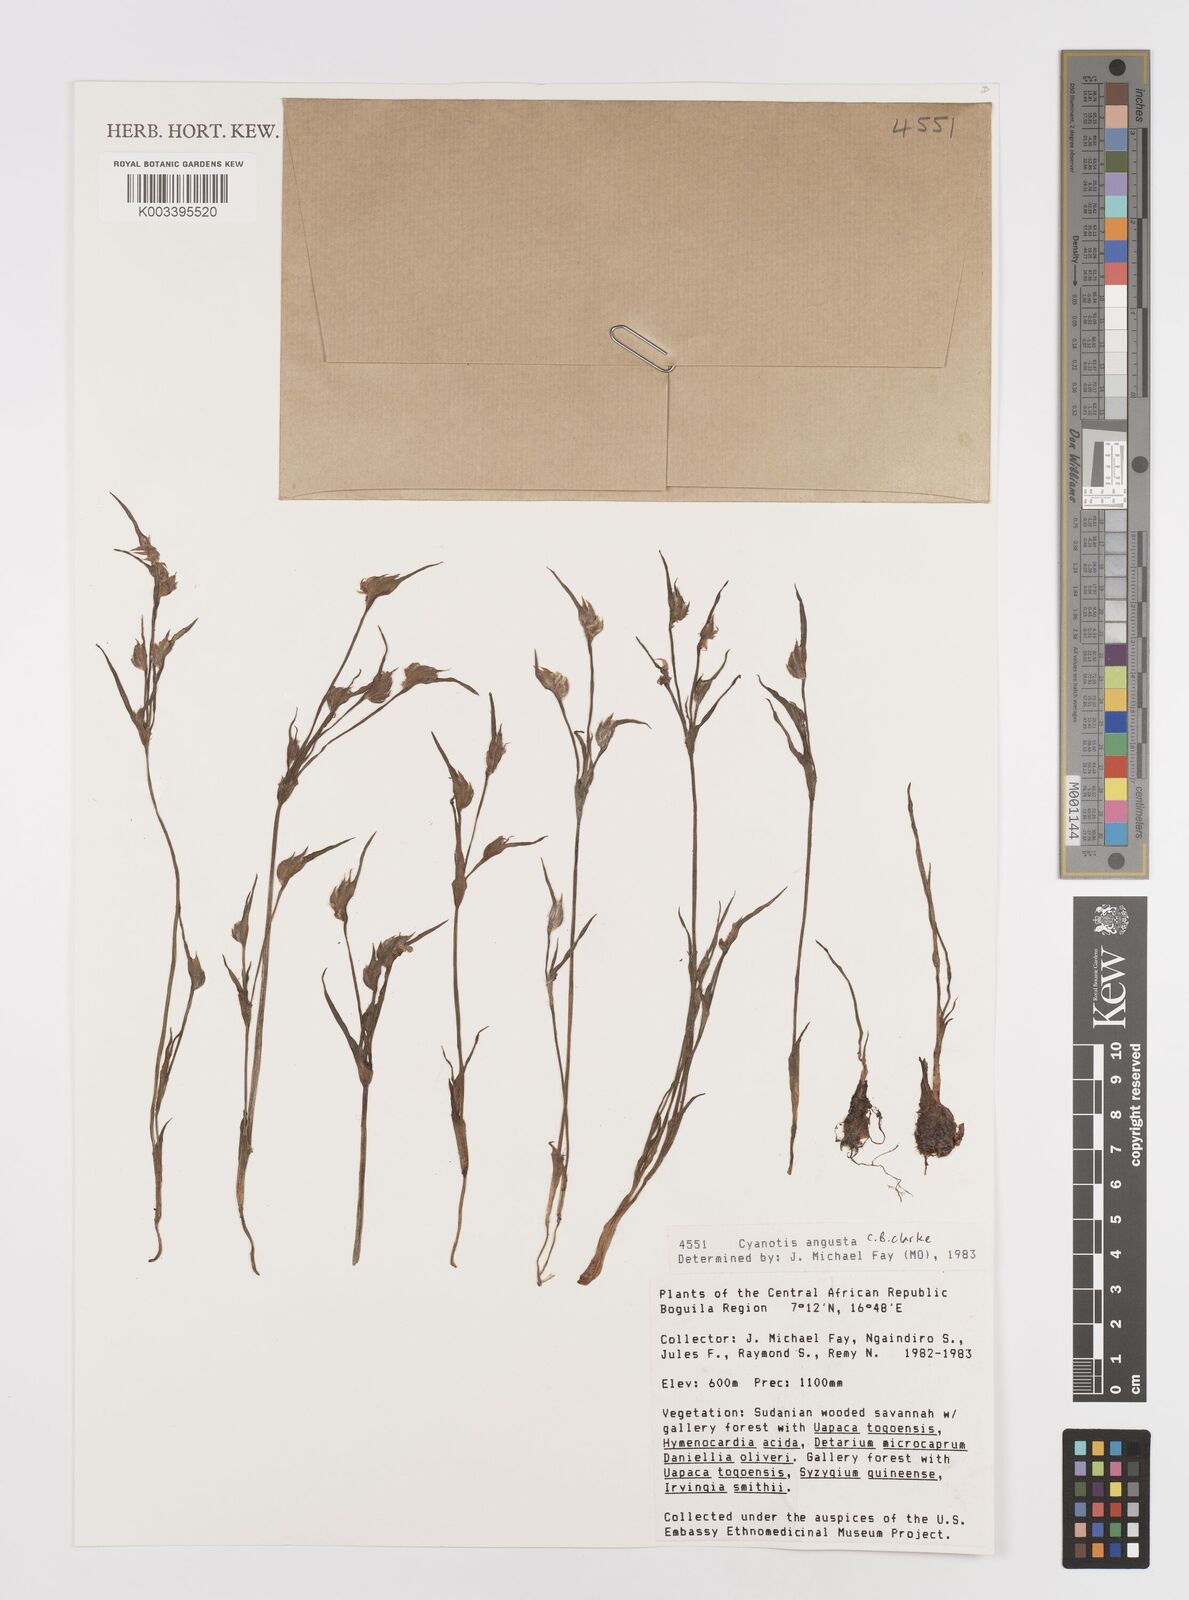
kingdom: Plantae
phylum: Tracheophyta
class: Liliopsida
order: Commelinales
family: Commelinaceae
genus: Cyanotis
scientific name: Cyanotis angusta
